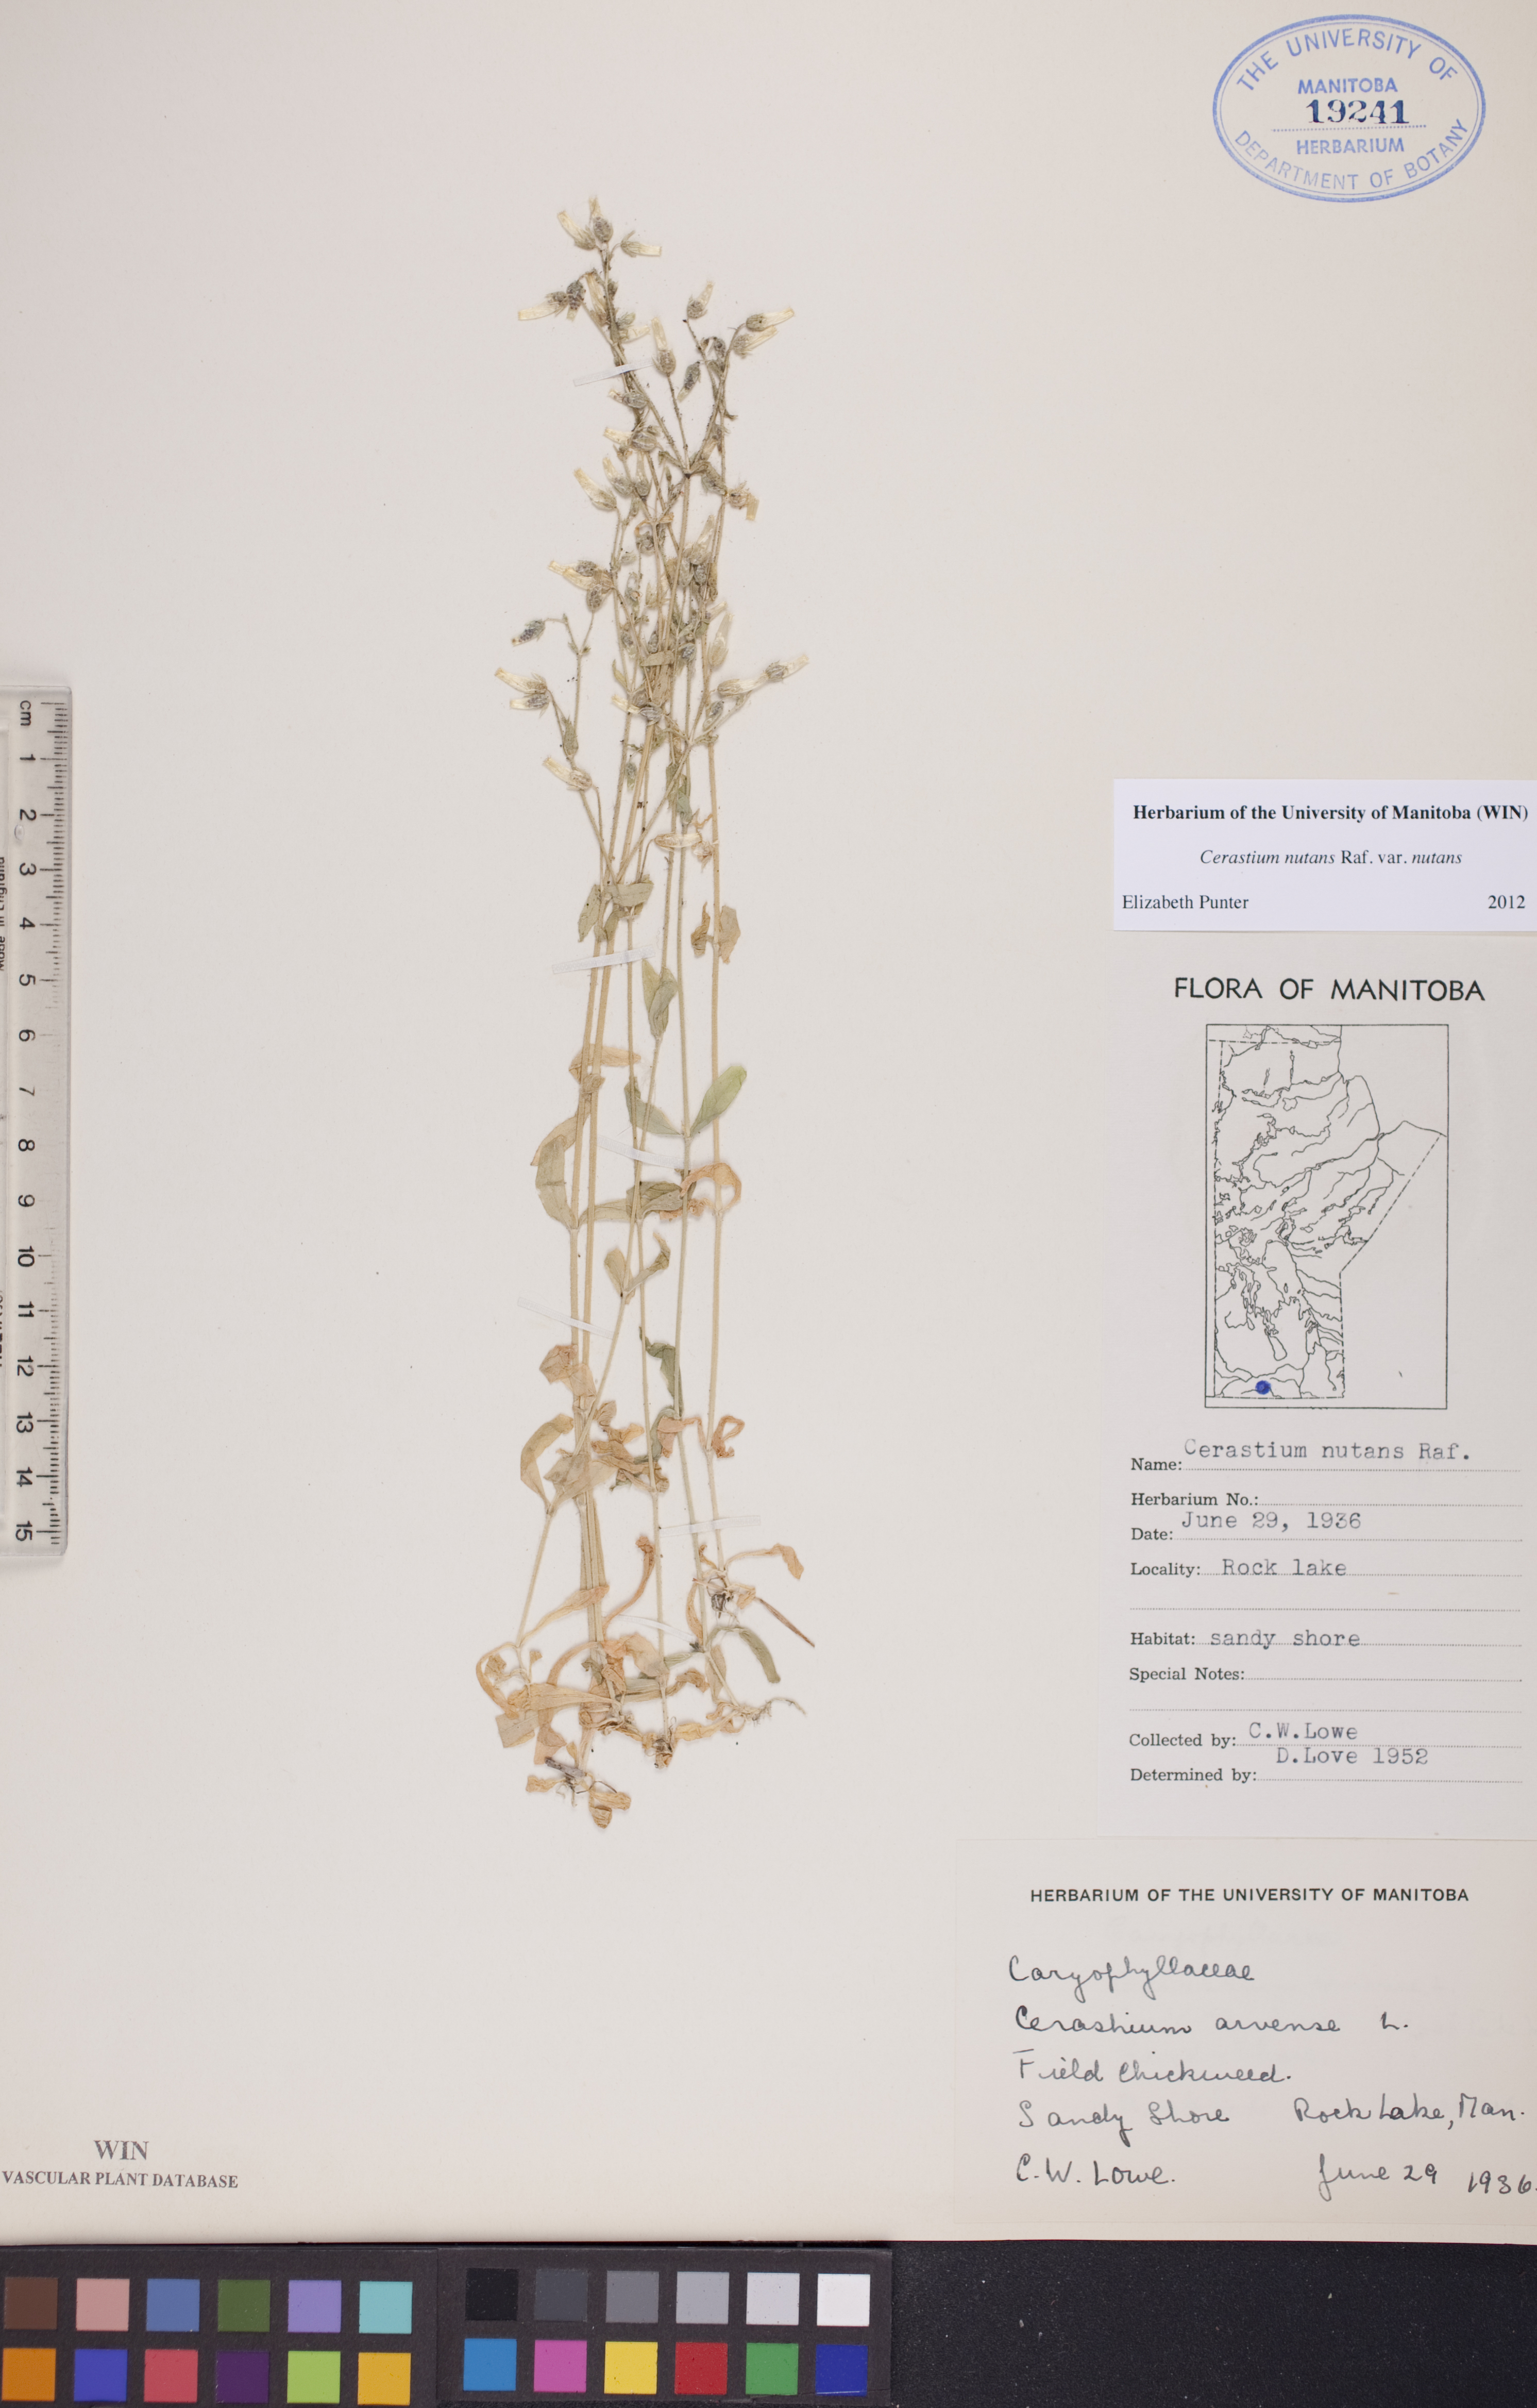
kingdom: Plantae
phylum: Tracheophyta
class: Magnoliopsida
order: Caryophyllales
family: Caryophyllaceae
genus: Cerastium
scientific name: Cerastium nutans
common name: Long-stalked chickweed
